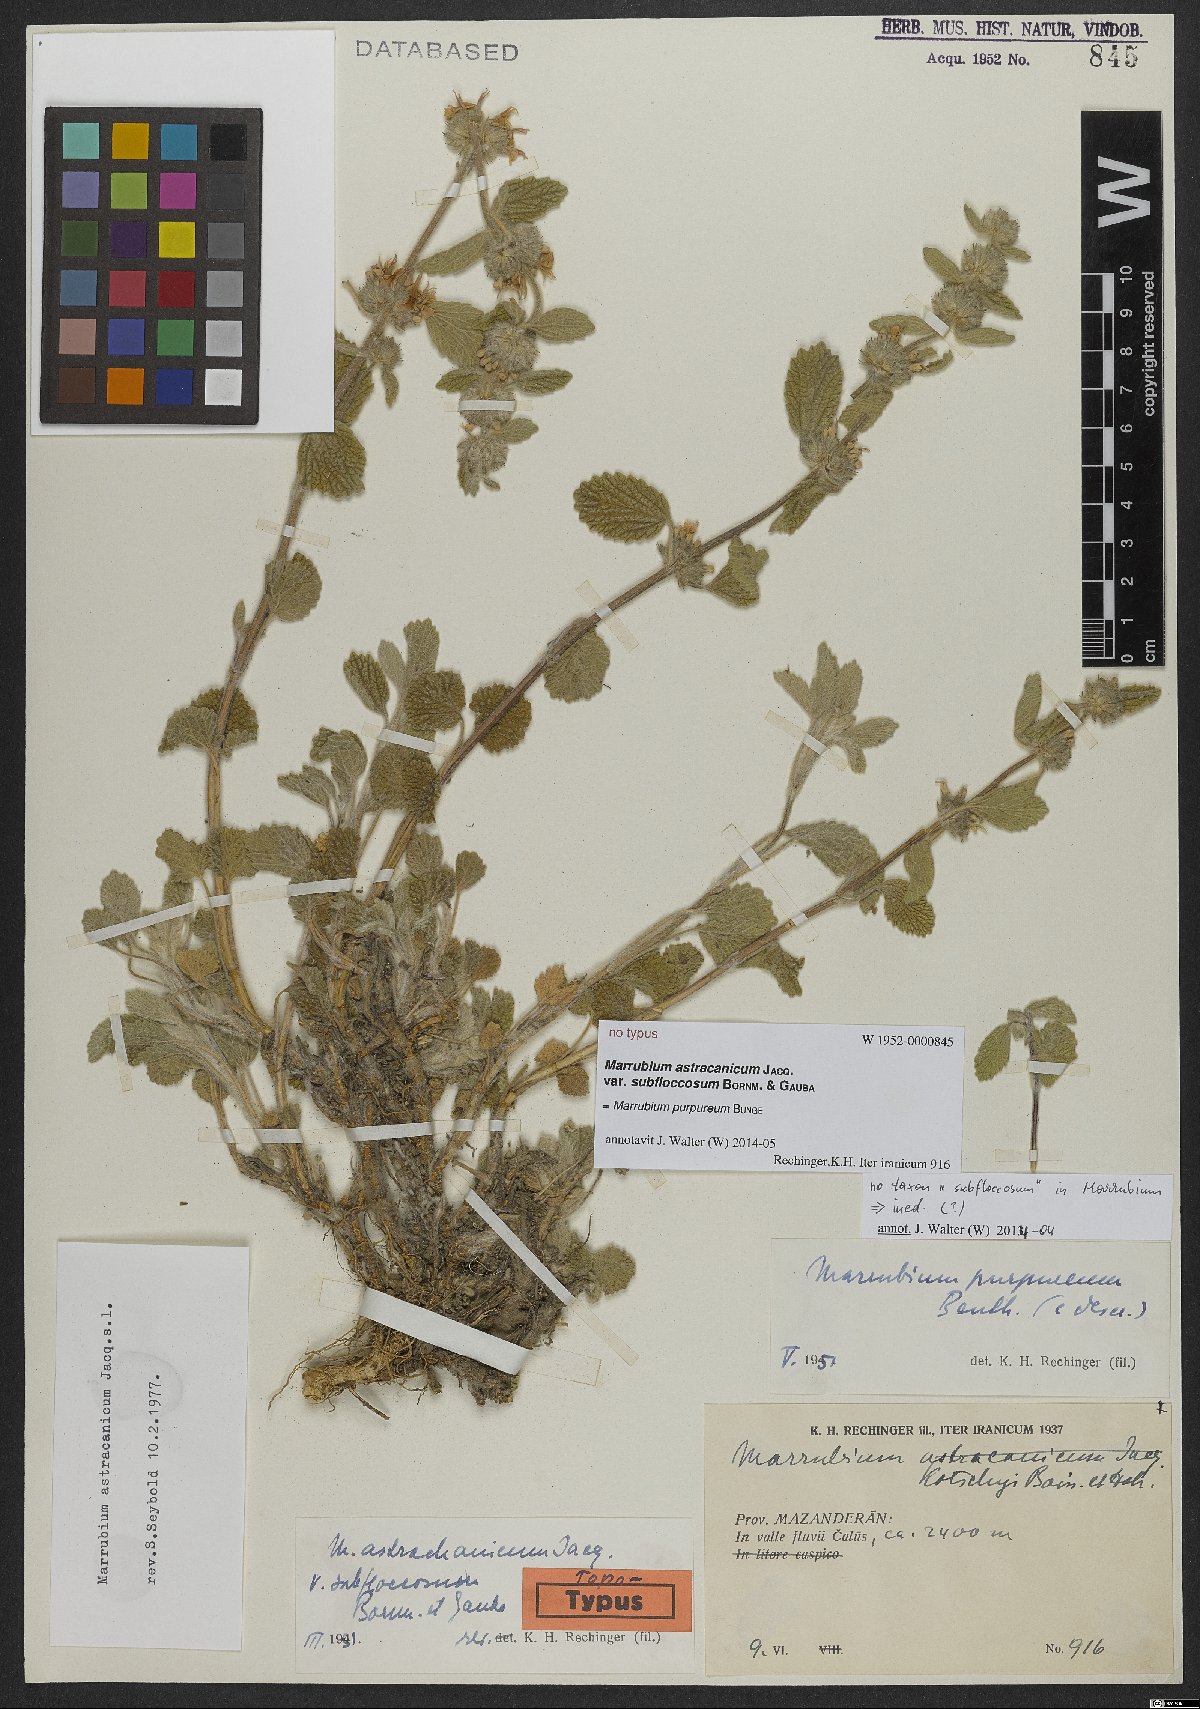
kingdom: Plantae
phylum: Tracheophyta
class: Magnoliopsida
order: Lamiales
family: Lamiaceae
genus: Marrubium
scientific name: Marrubium astracanicum
